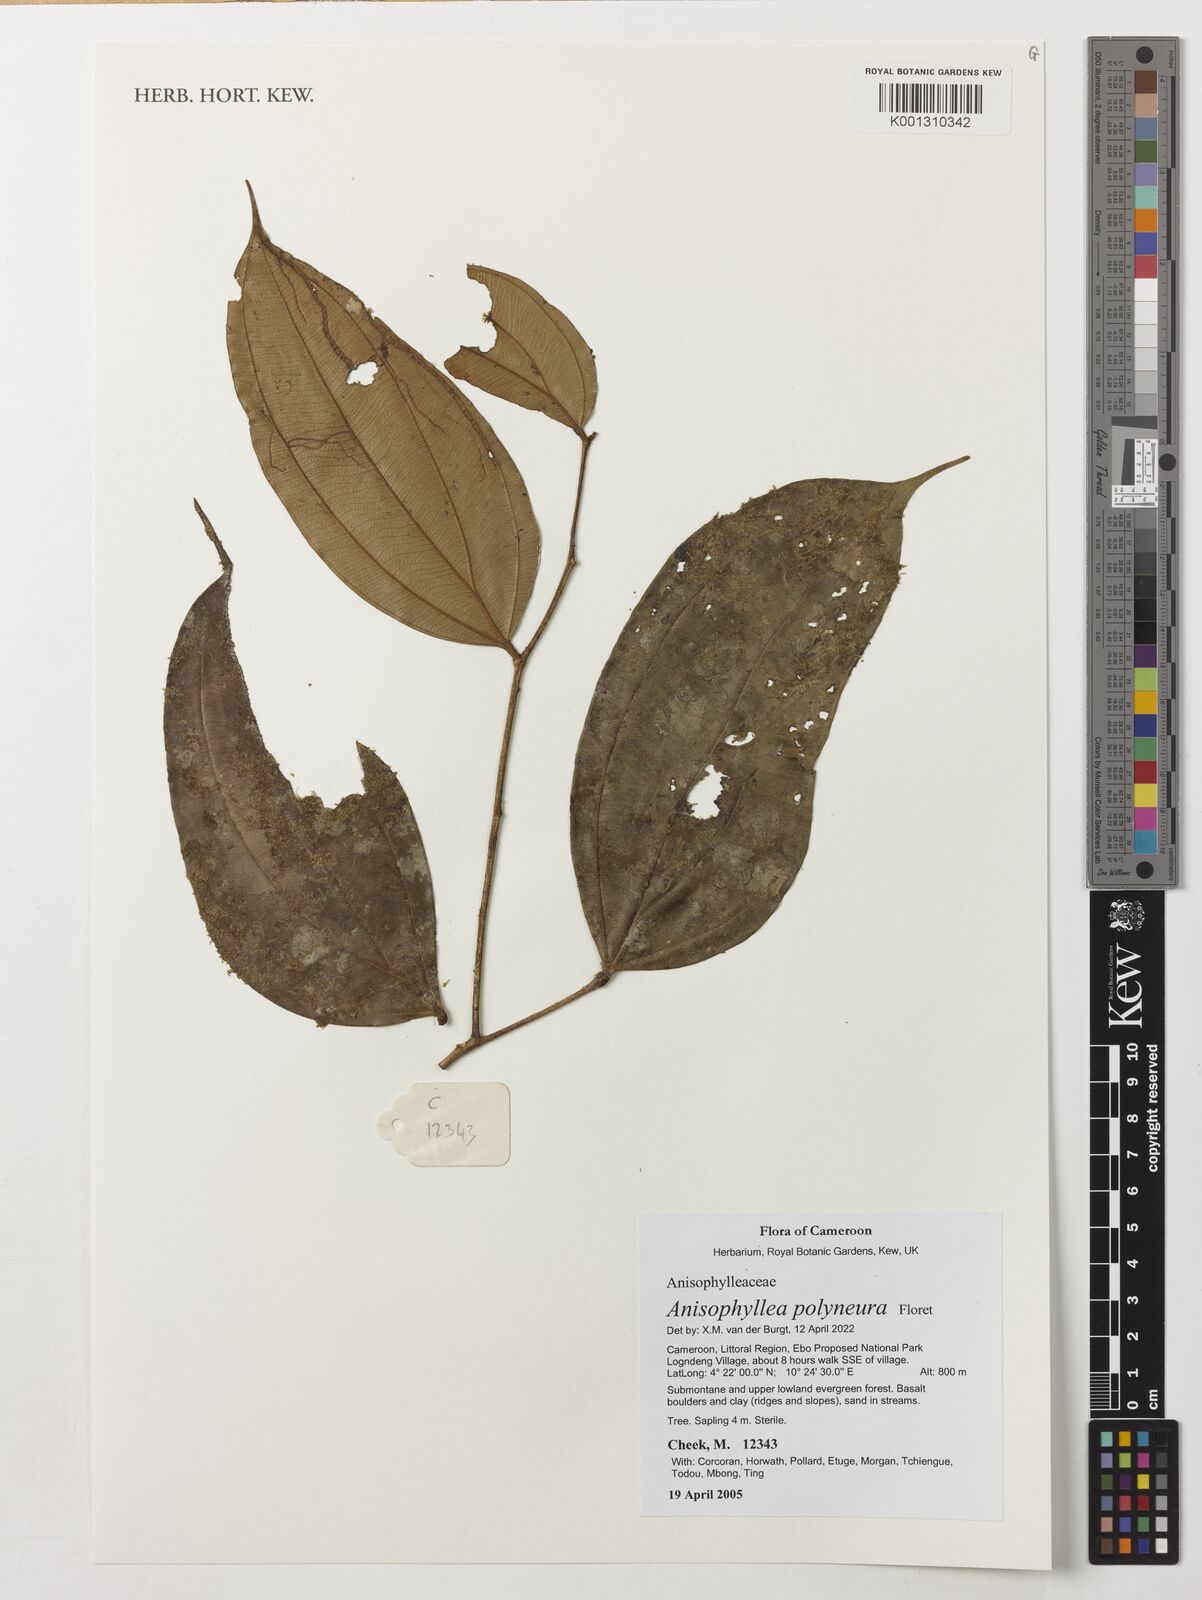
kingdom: Plantae
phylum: Tracheophyta
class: Magnoliopsida
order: Cucurbitales
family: Anisophylleaceae
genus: Anisophyllea
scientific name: Anisophyllea polyneura
